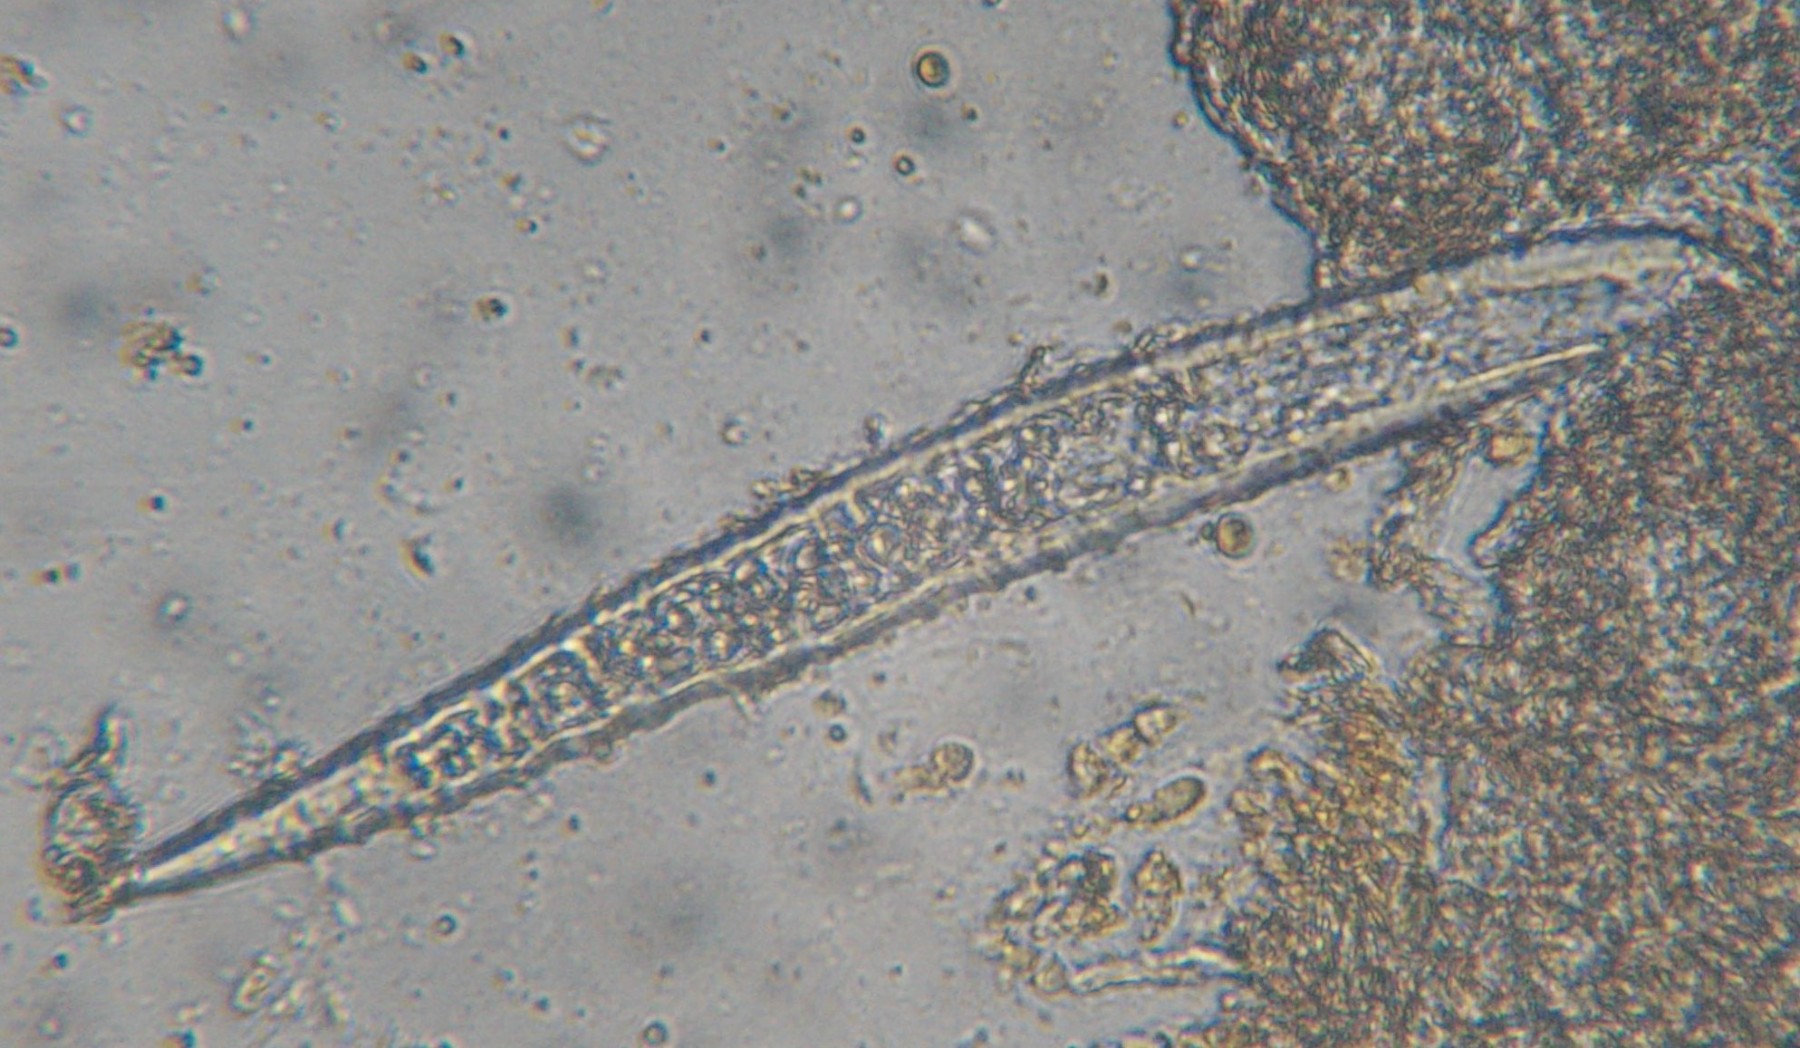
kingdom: Fungi
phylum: Ascomycota
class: Leotiomycetes
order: Helotiales
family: Erysiphaceae
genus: Erysiphe
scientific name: Erysiphe astragali
